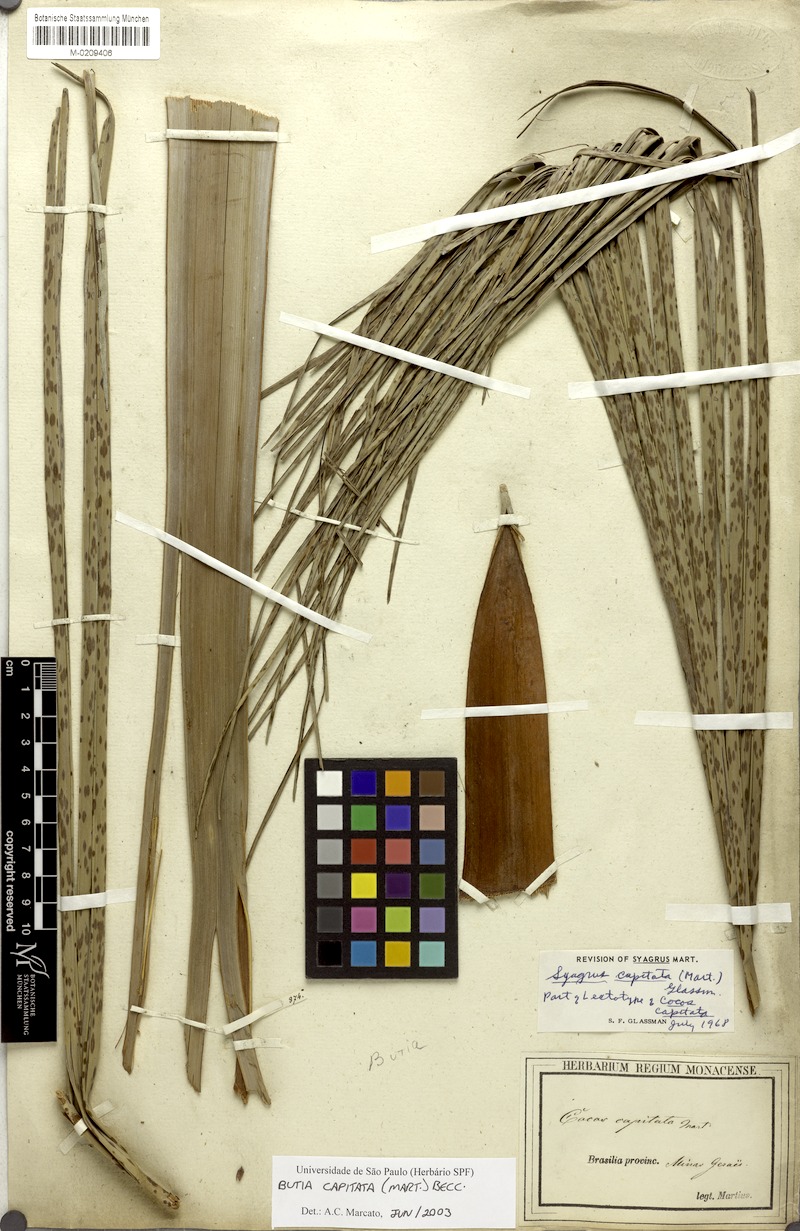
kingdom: Plantae
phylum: Tracheophyta
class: Liliopsida
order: Arecales
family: Arecaceae
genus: Butia
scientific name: Butia capitata
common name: South american jelly palm
